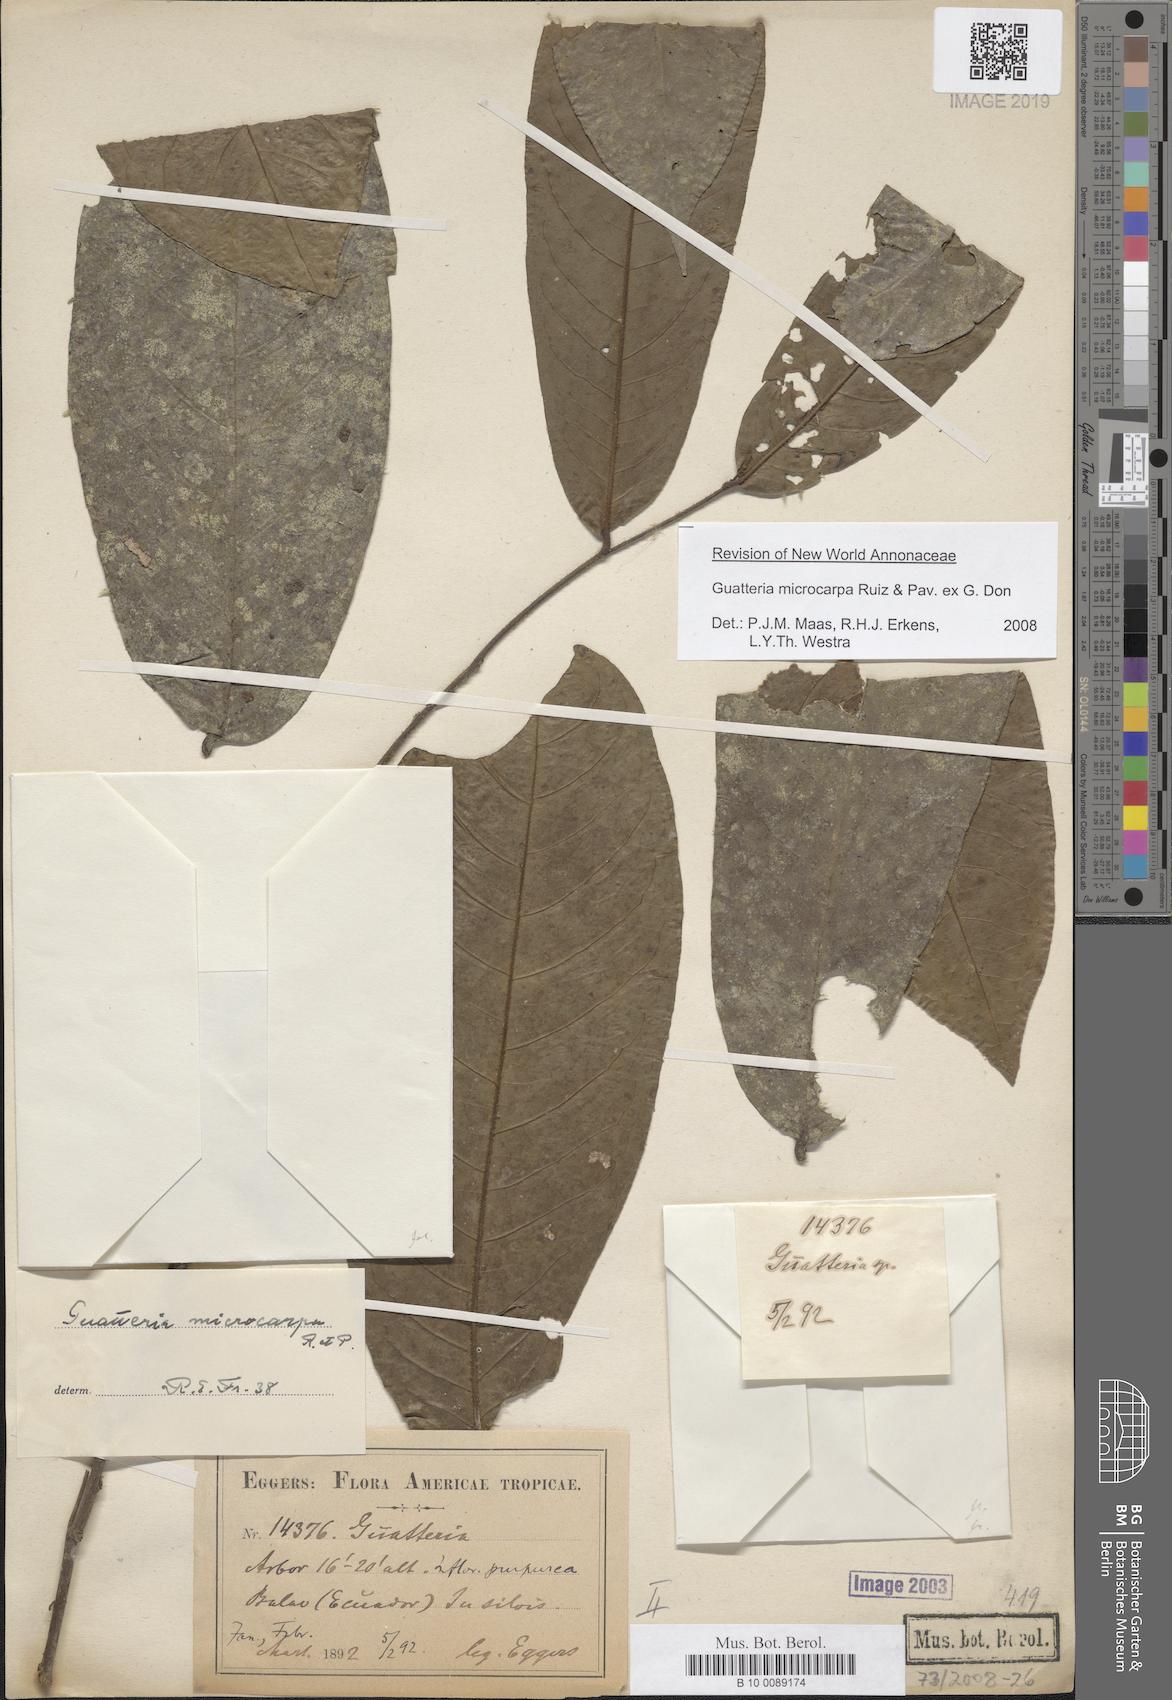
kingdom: Plantae
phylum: Tracheophyta
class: Magnoliopsida
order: Magnoliales
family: Annonaceae
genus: Guatteria
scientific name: Guatteria microcarpa
